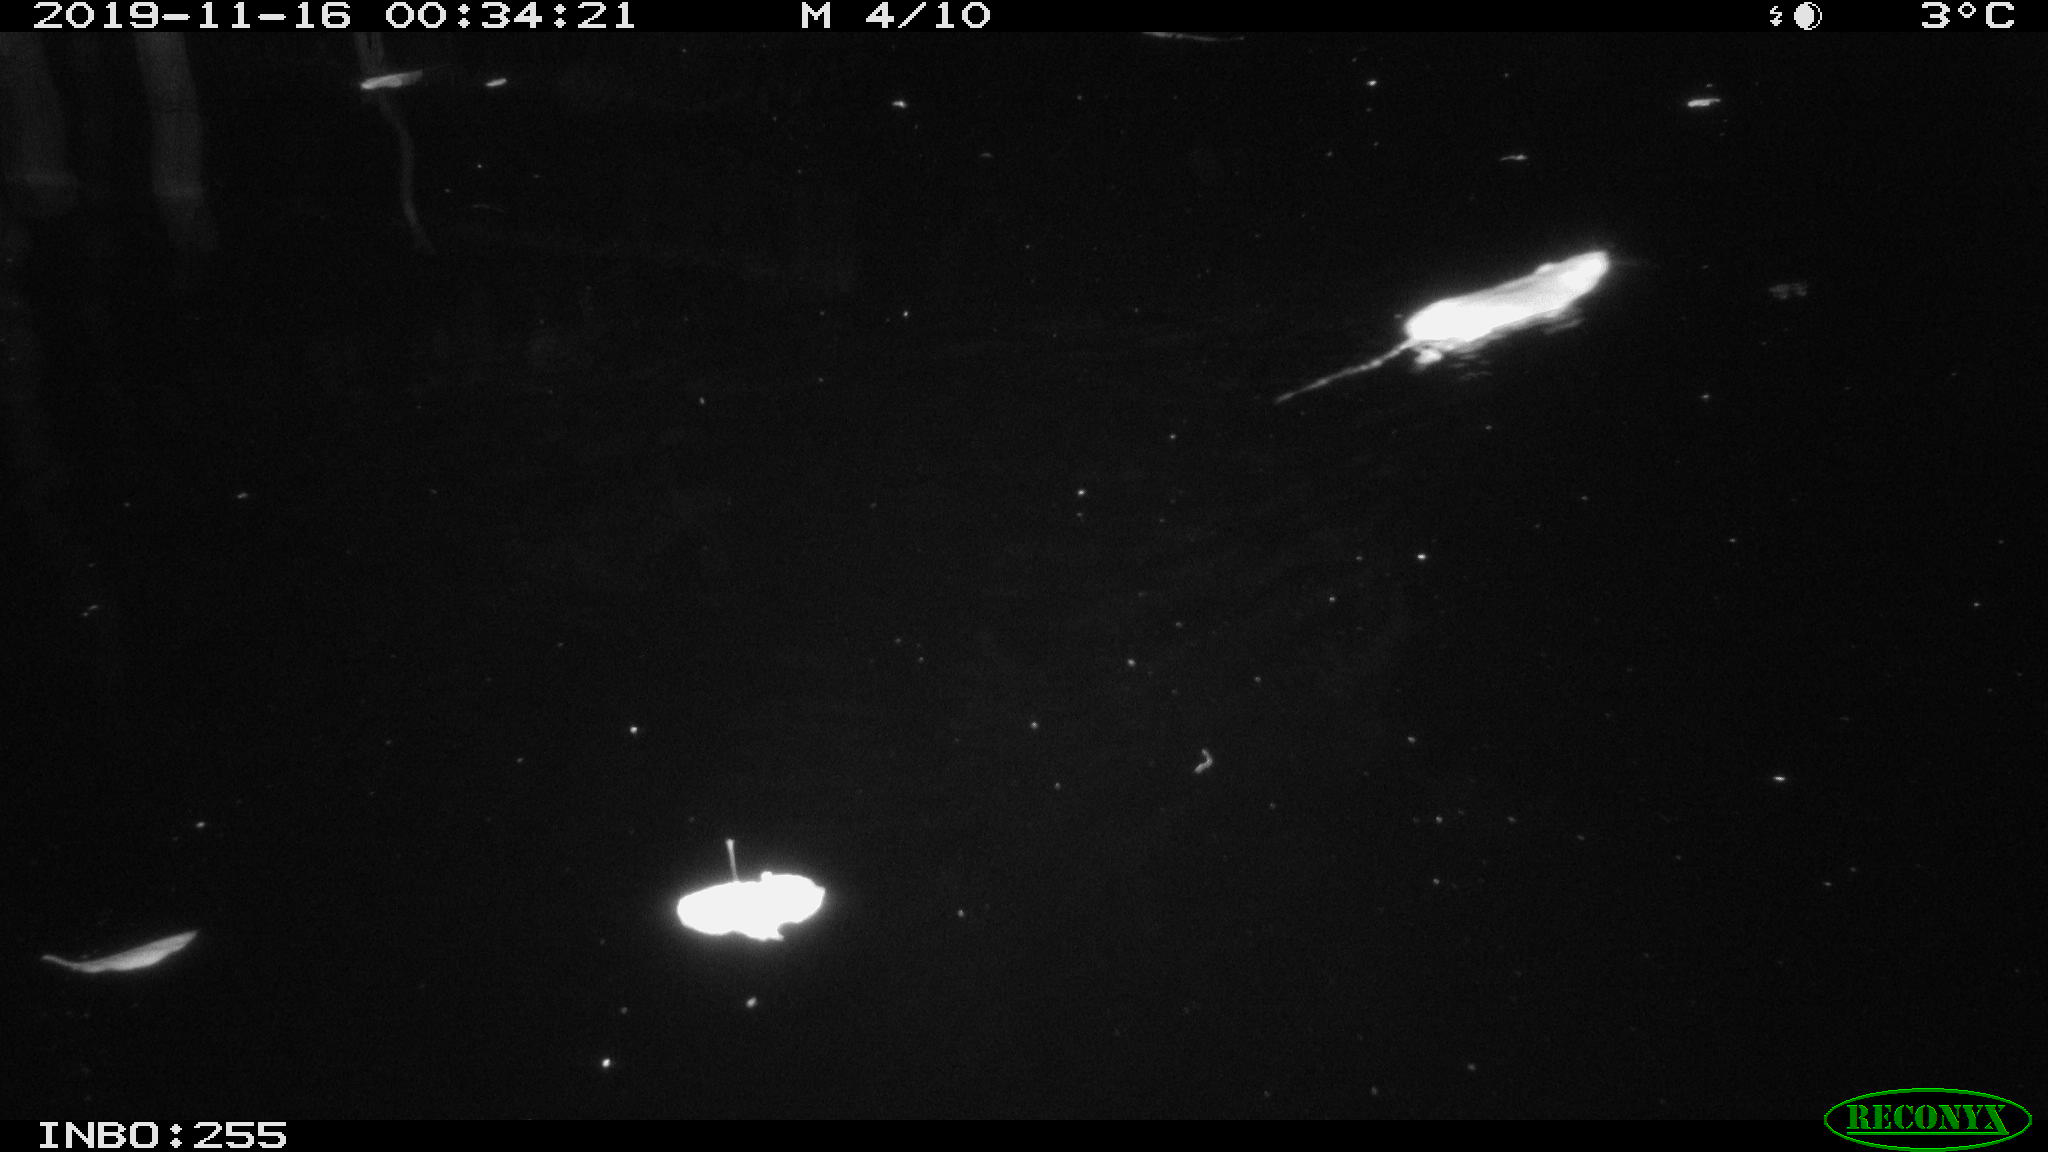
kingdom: Animalia
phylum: Chordata
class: Mammalia
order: Rodentia
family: Muridae
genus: Rattus
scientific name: Rattus norvegicus
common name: Brown rat
